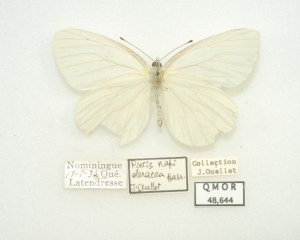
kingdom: Animalia
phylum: Arthropoda
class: Insecta
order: Lepidoptera
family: Pieridae
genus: Pieris
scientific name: Pieris oleracea
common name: Mustard White
